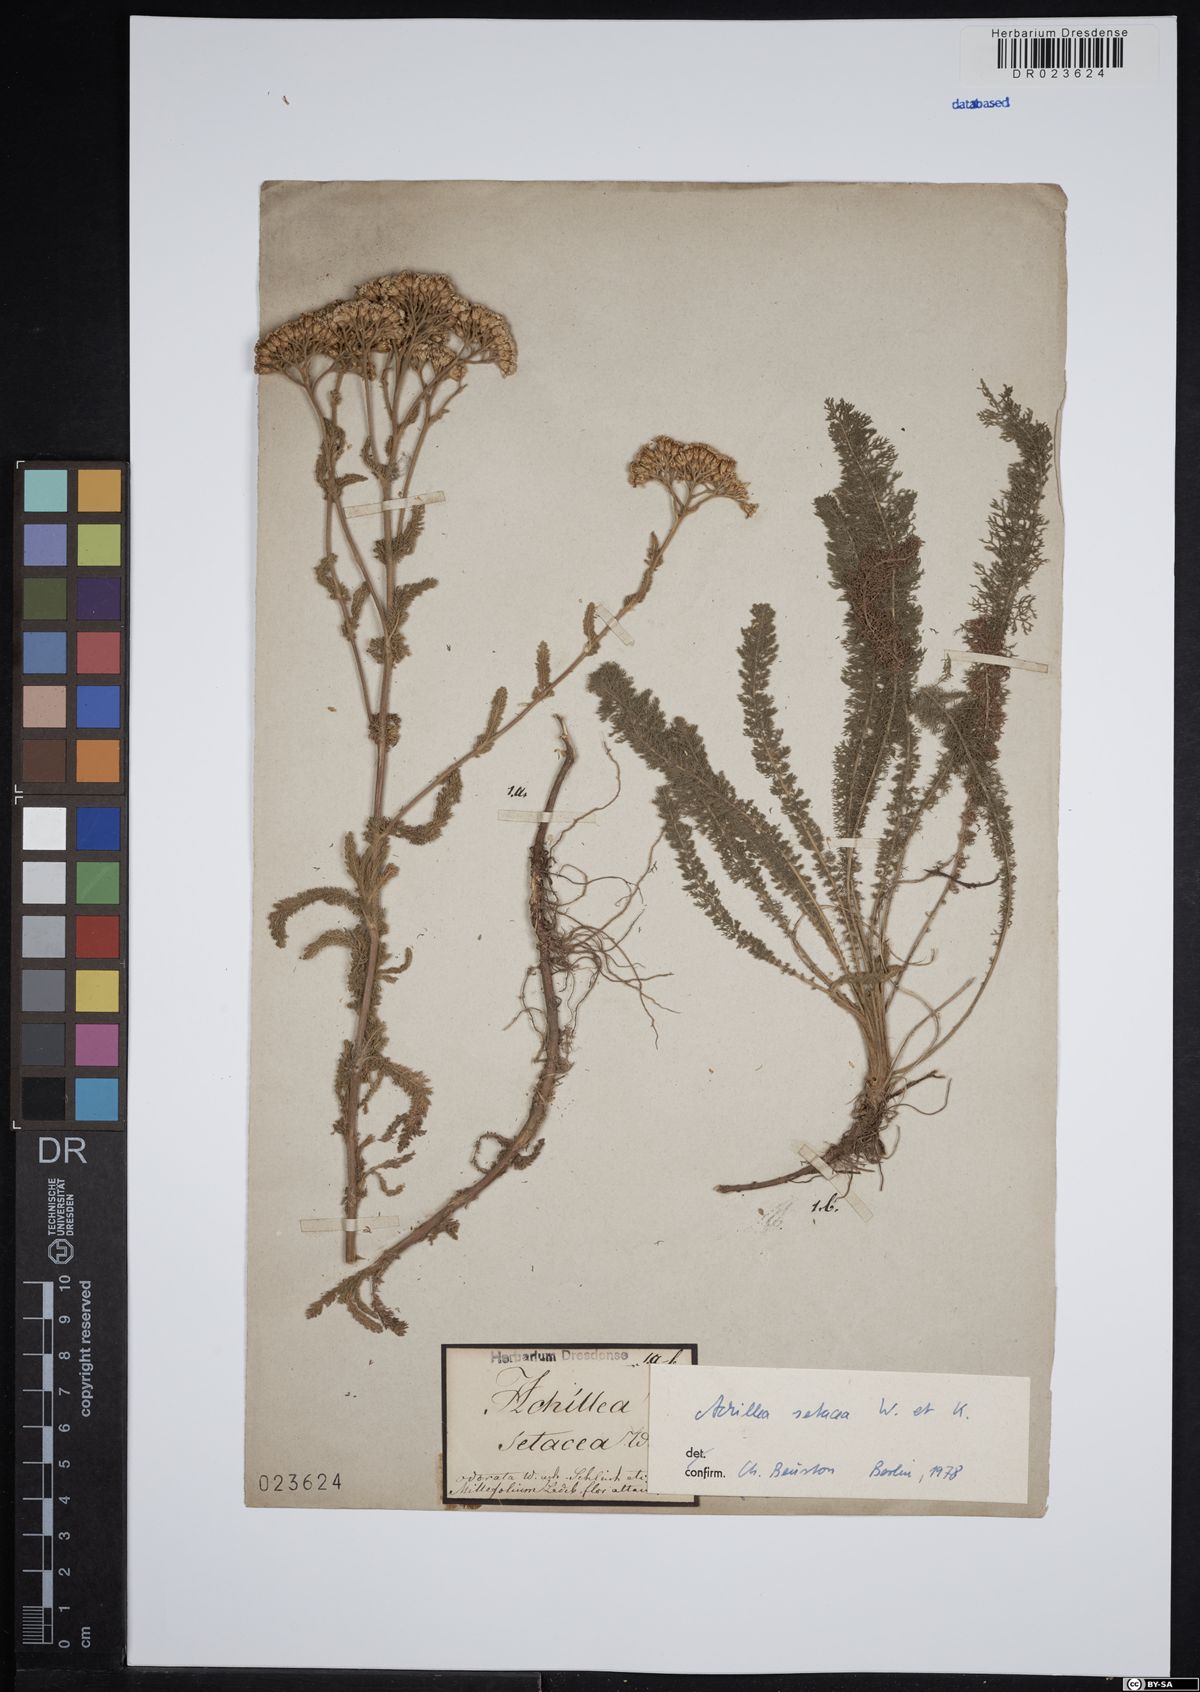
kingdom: Plantae
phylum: Tracheophyta
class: Magnoliopsida
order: Asterales
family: Asteraceae
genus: Achillea
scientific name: Achillea setacea
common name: Bristly yarrow
